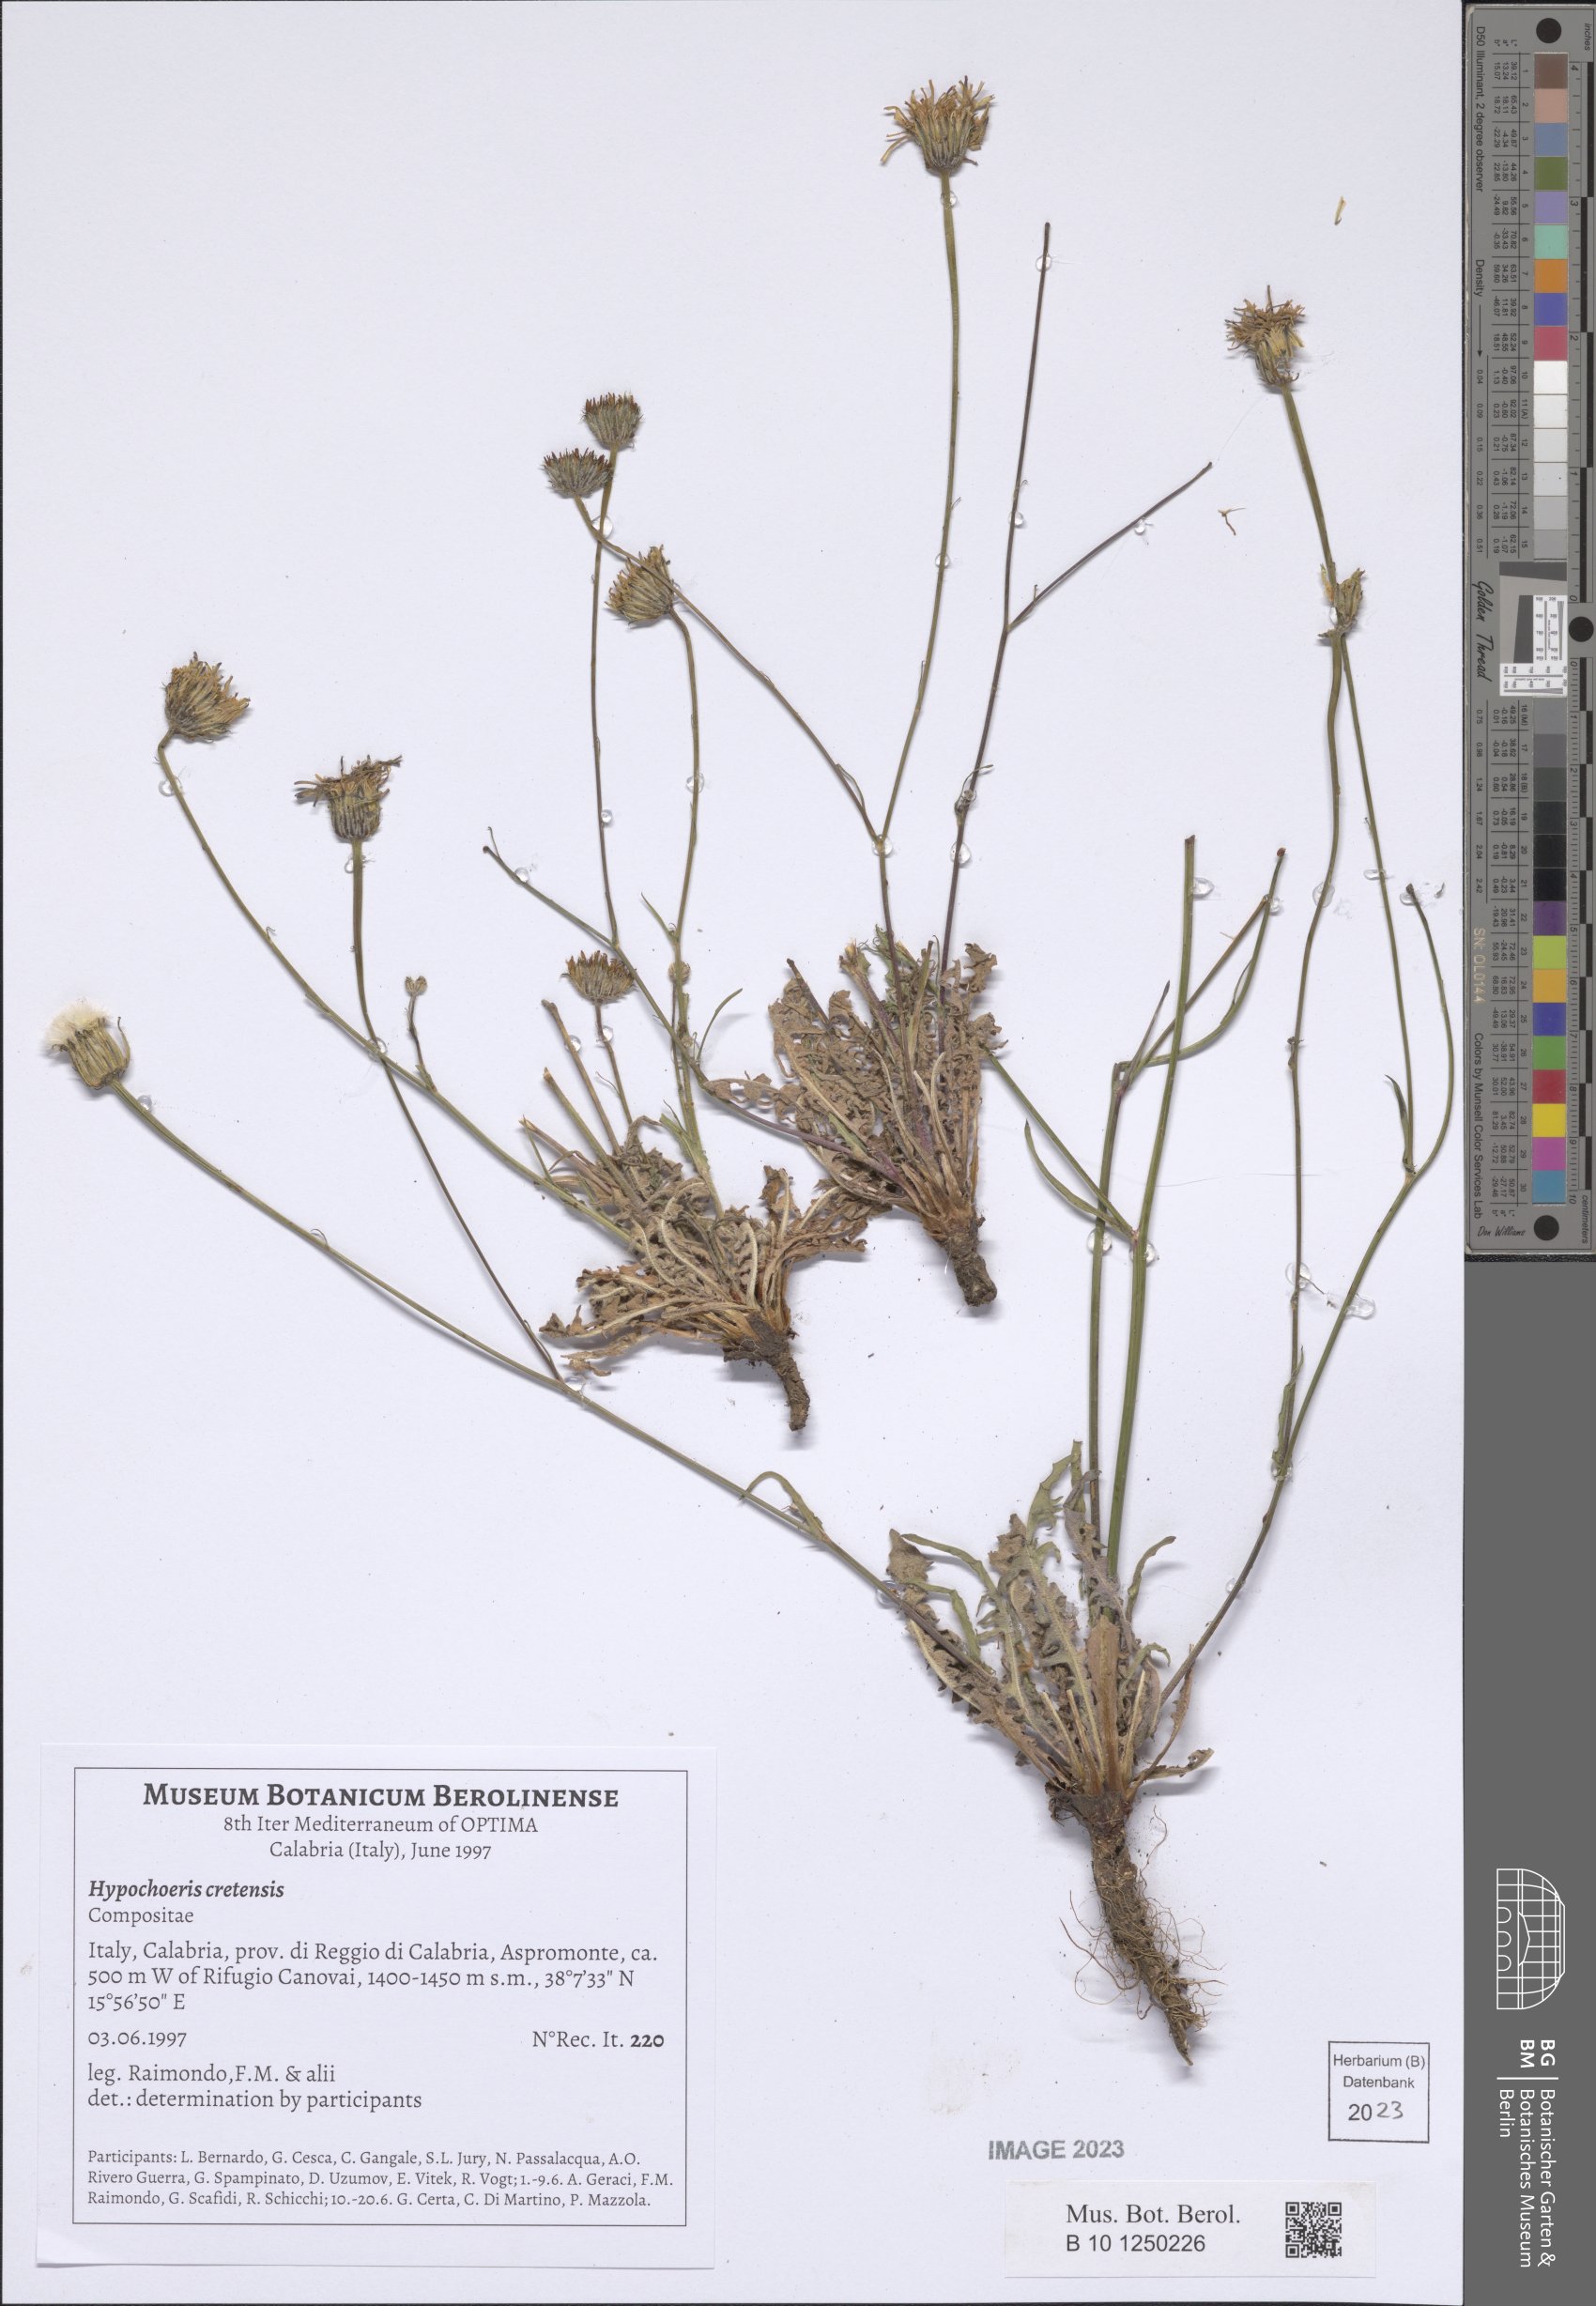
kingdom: Plantae
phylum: Tracheophyta
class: Magnoliopsida
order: Asterales
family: Asteraceae
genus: Hypochaeris
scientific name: Hypochaeris cretensis
